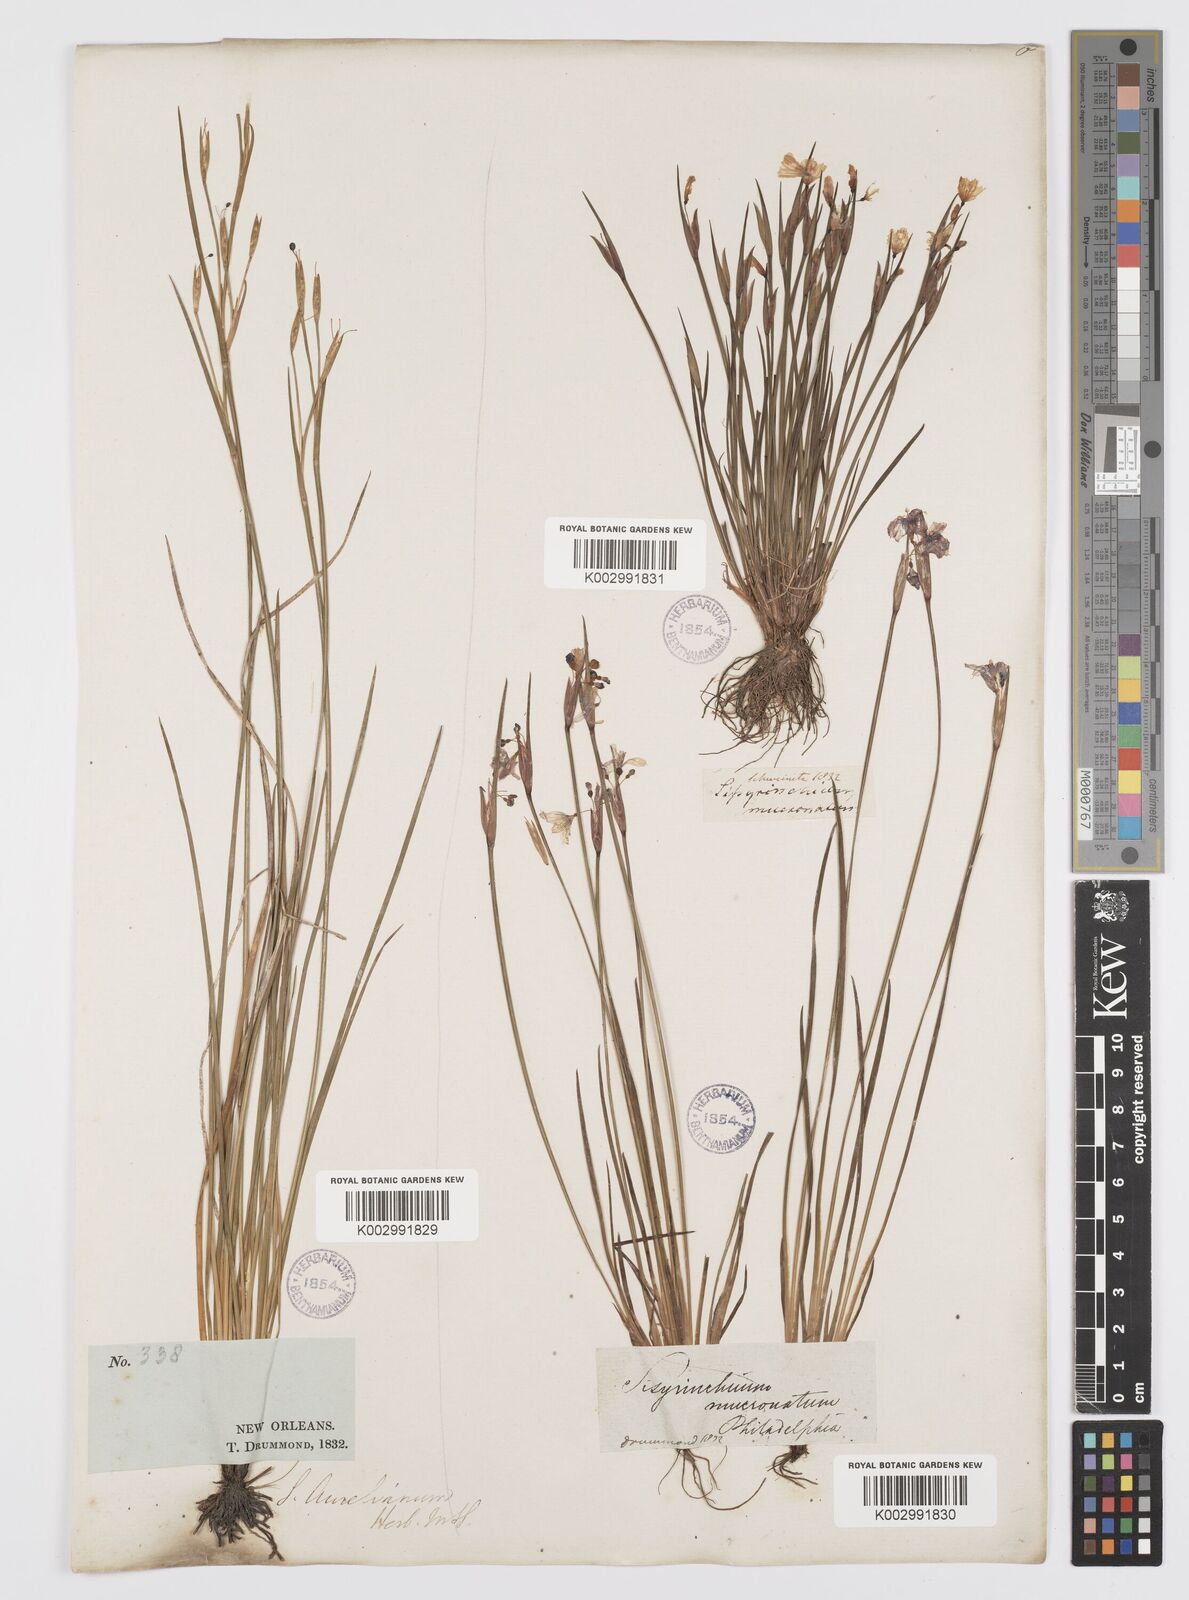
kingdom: Plantae
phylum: Tracheophyta
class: Liliopsida
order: Asparagales
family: Iridaceae
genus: Sisyrinchium
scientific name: Sisyrinchium bermudiana
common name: Blue-eyed-grass
